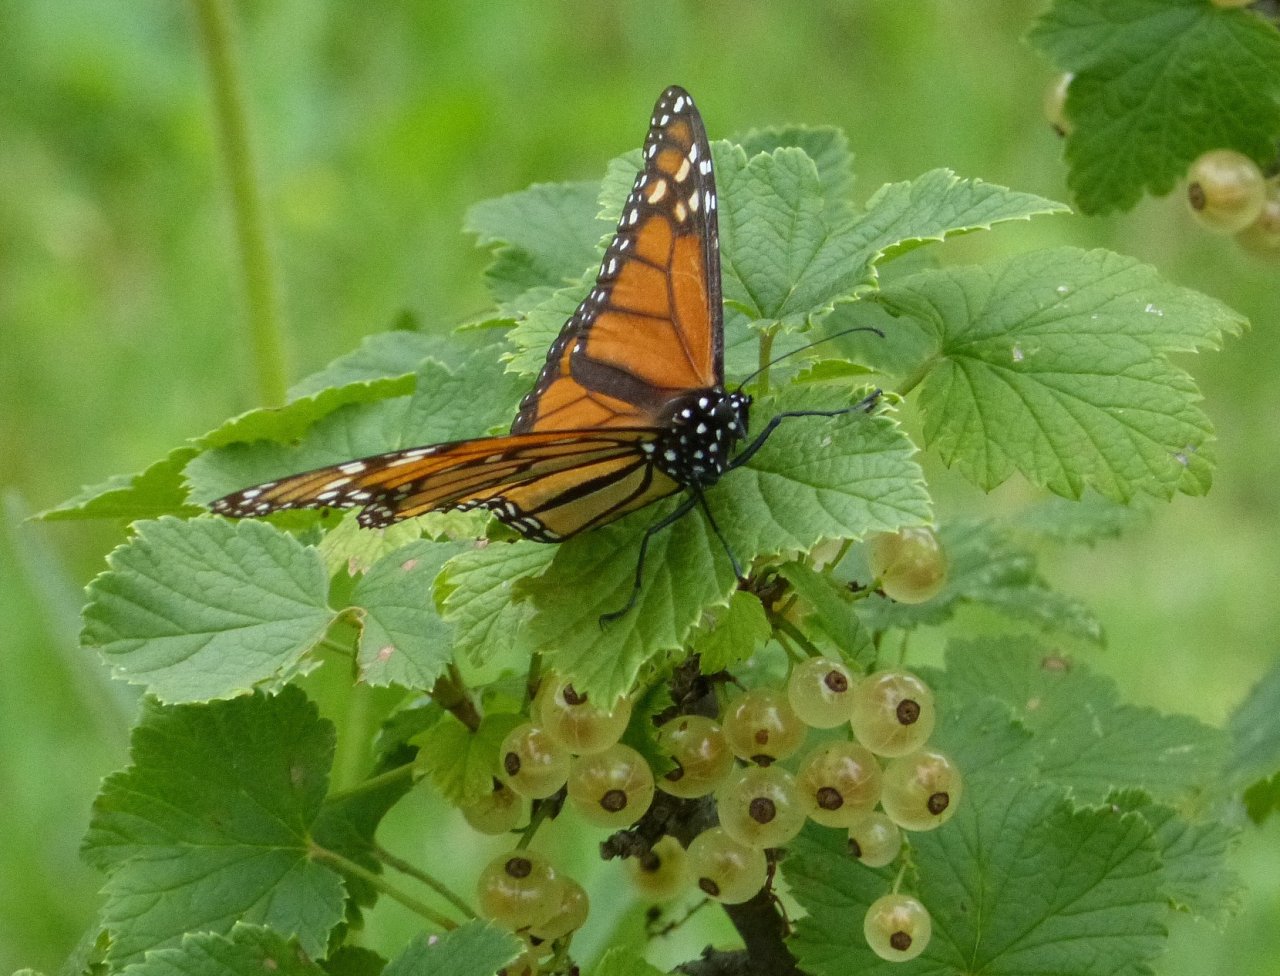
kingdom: Animalia
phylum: Arthropoda
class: Insecta
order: Lepidoptera
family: Nymphalidae
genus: Danaus
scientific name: Danaus plexippus
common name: Monarch
